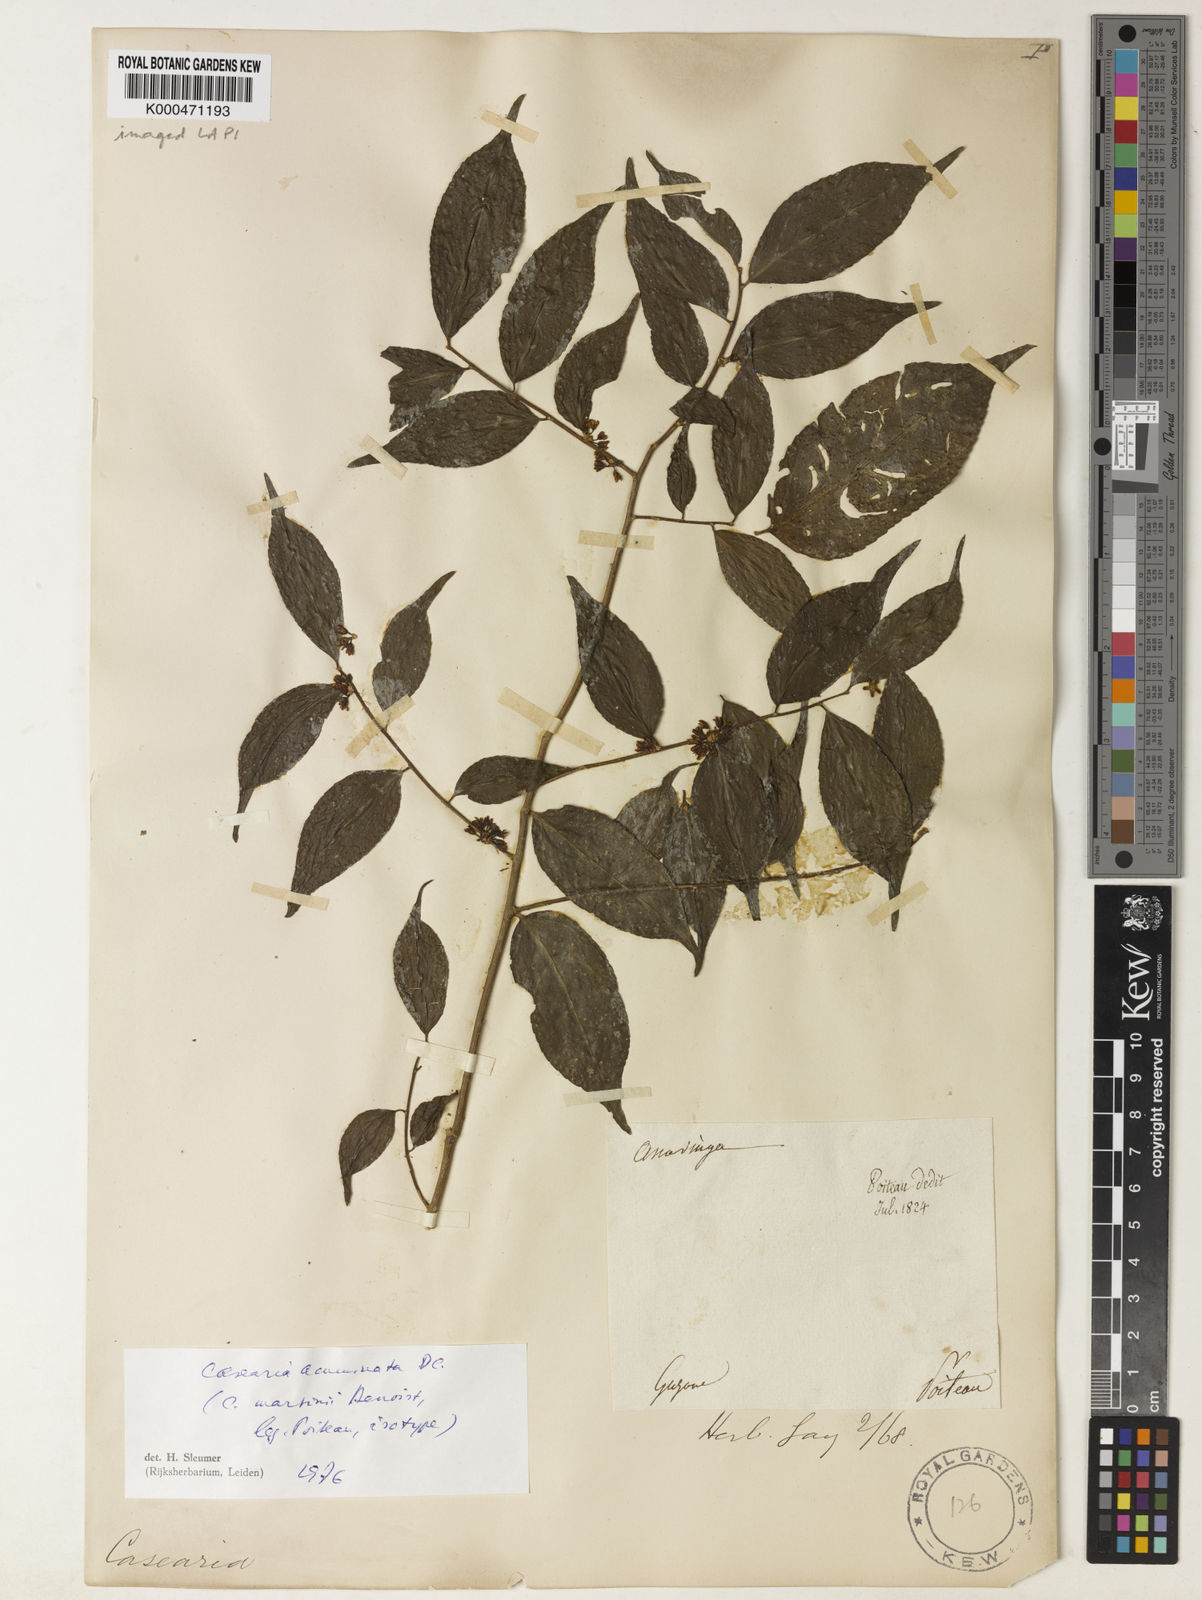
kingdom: Plantae
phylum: Tracheophyta
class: Magnoliopsida
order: Malpighiales
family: Salicaceae
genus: Casearia
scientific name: Casearia acuminata
